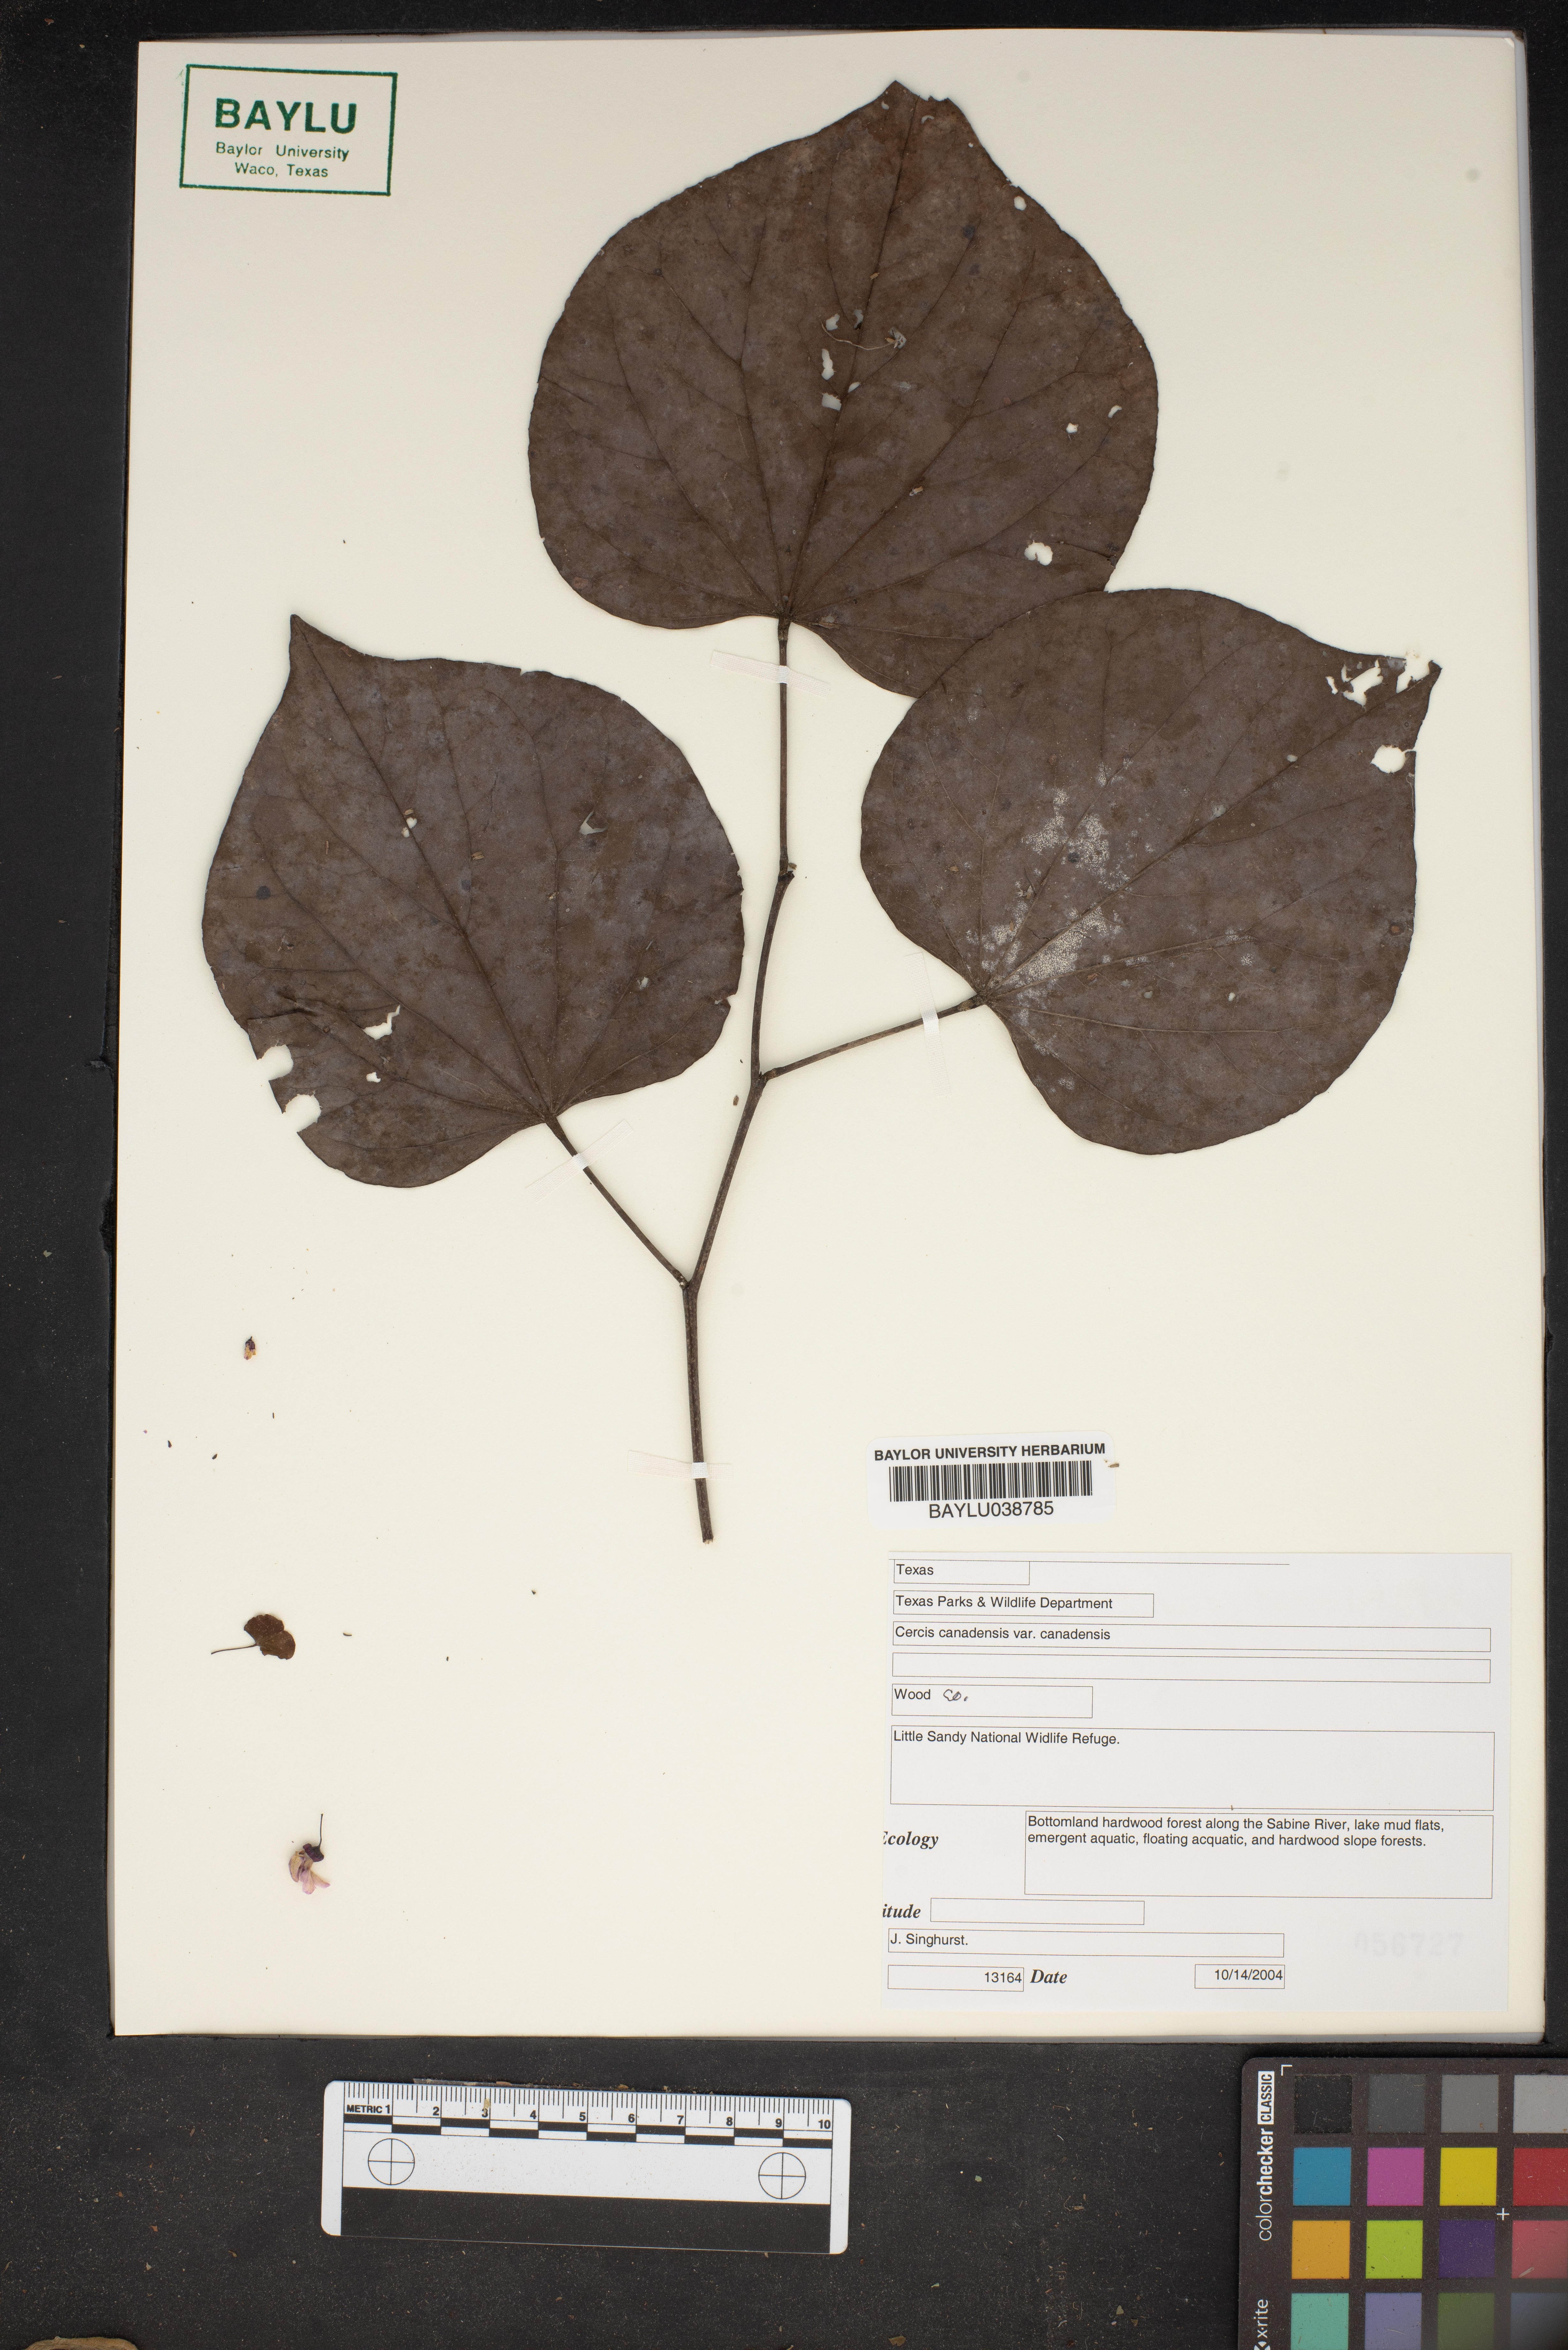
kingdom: Plantae
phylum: Tracheophyta
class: Magnoliopsida
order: Fabales
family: Fabaceae
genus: Cercis
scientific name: Cercis canadensis
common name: Eastern redbud
